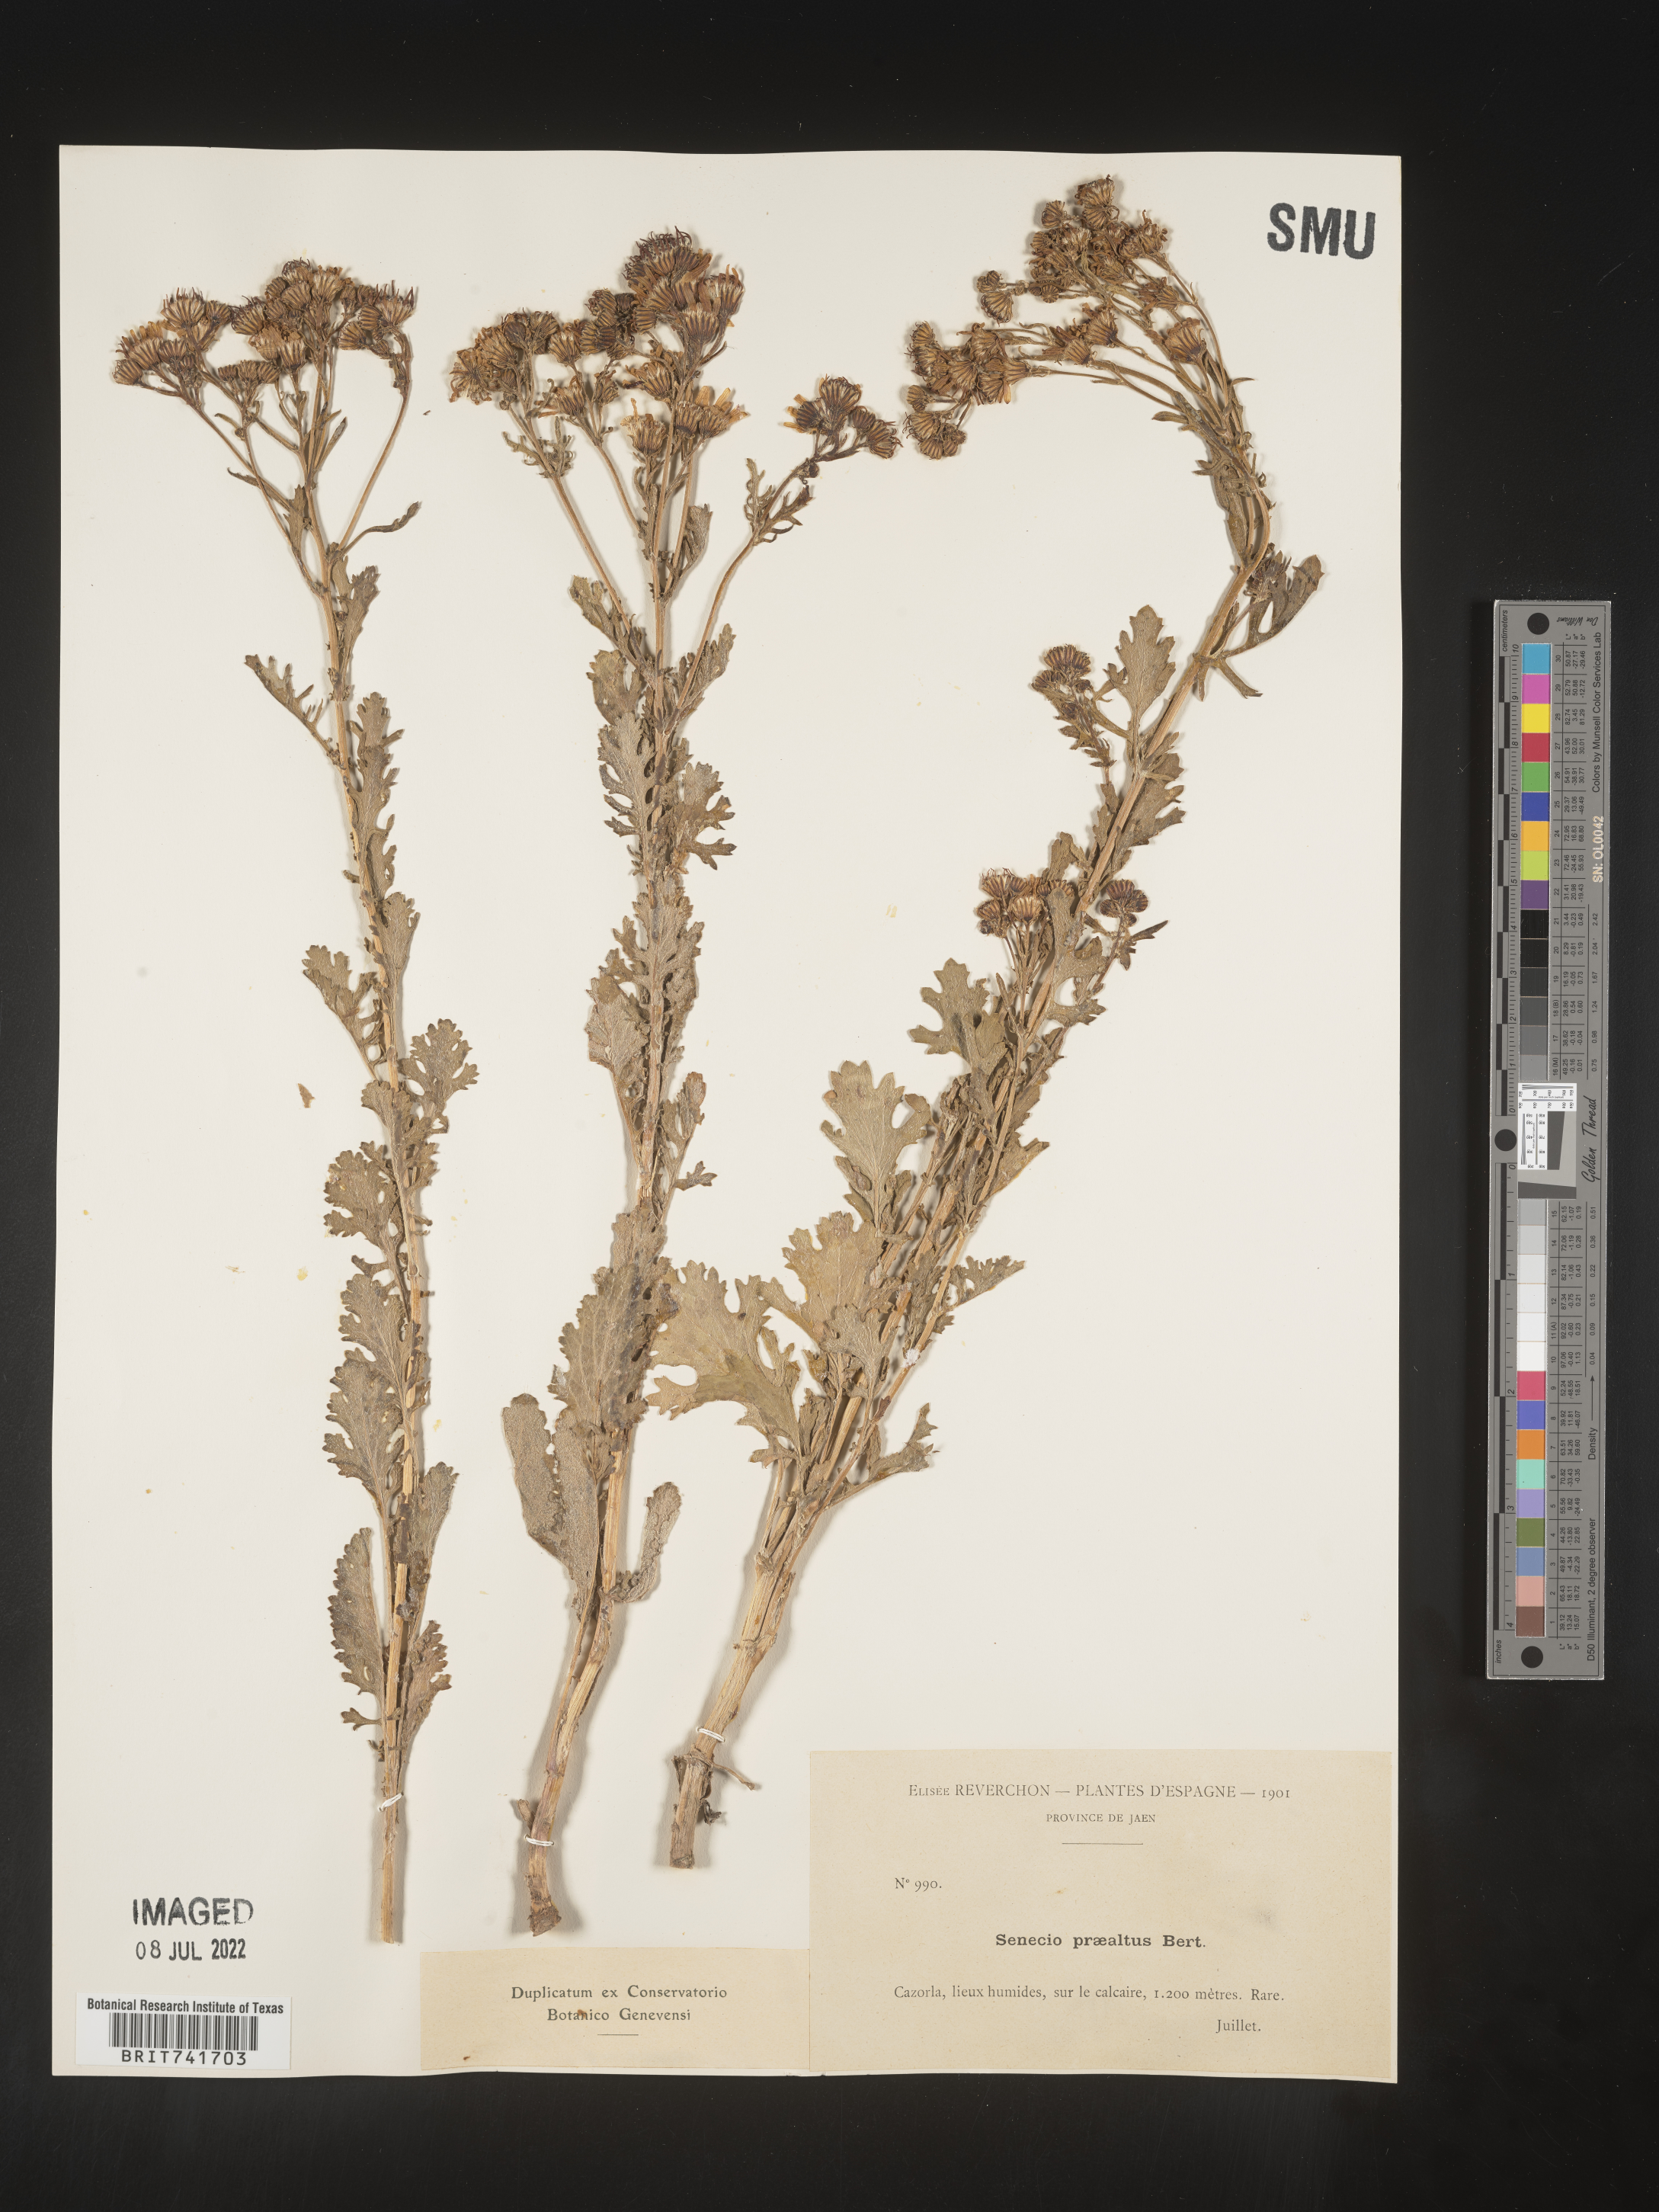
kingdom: Plantae
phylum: Tracheophyta
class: Magnoliopsida
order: Asterales
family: Asteraceae
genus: Senecio
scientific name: Senecio
